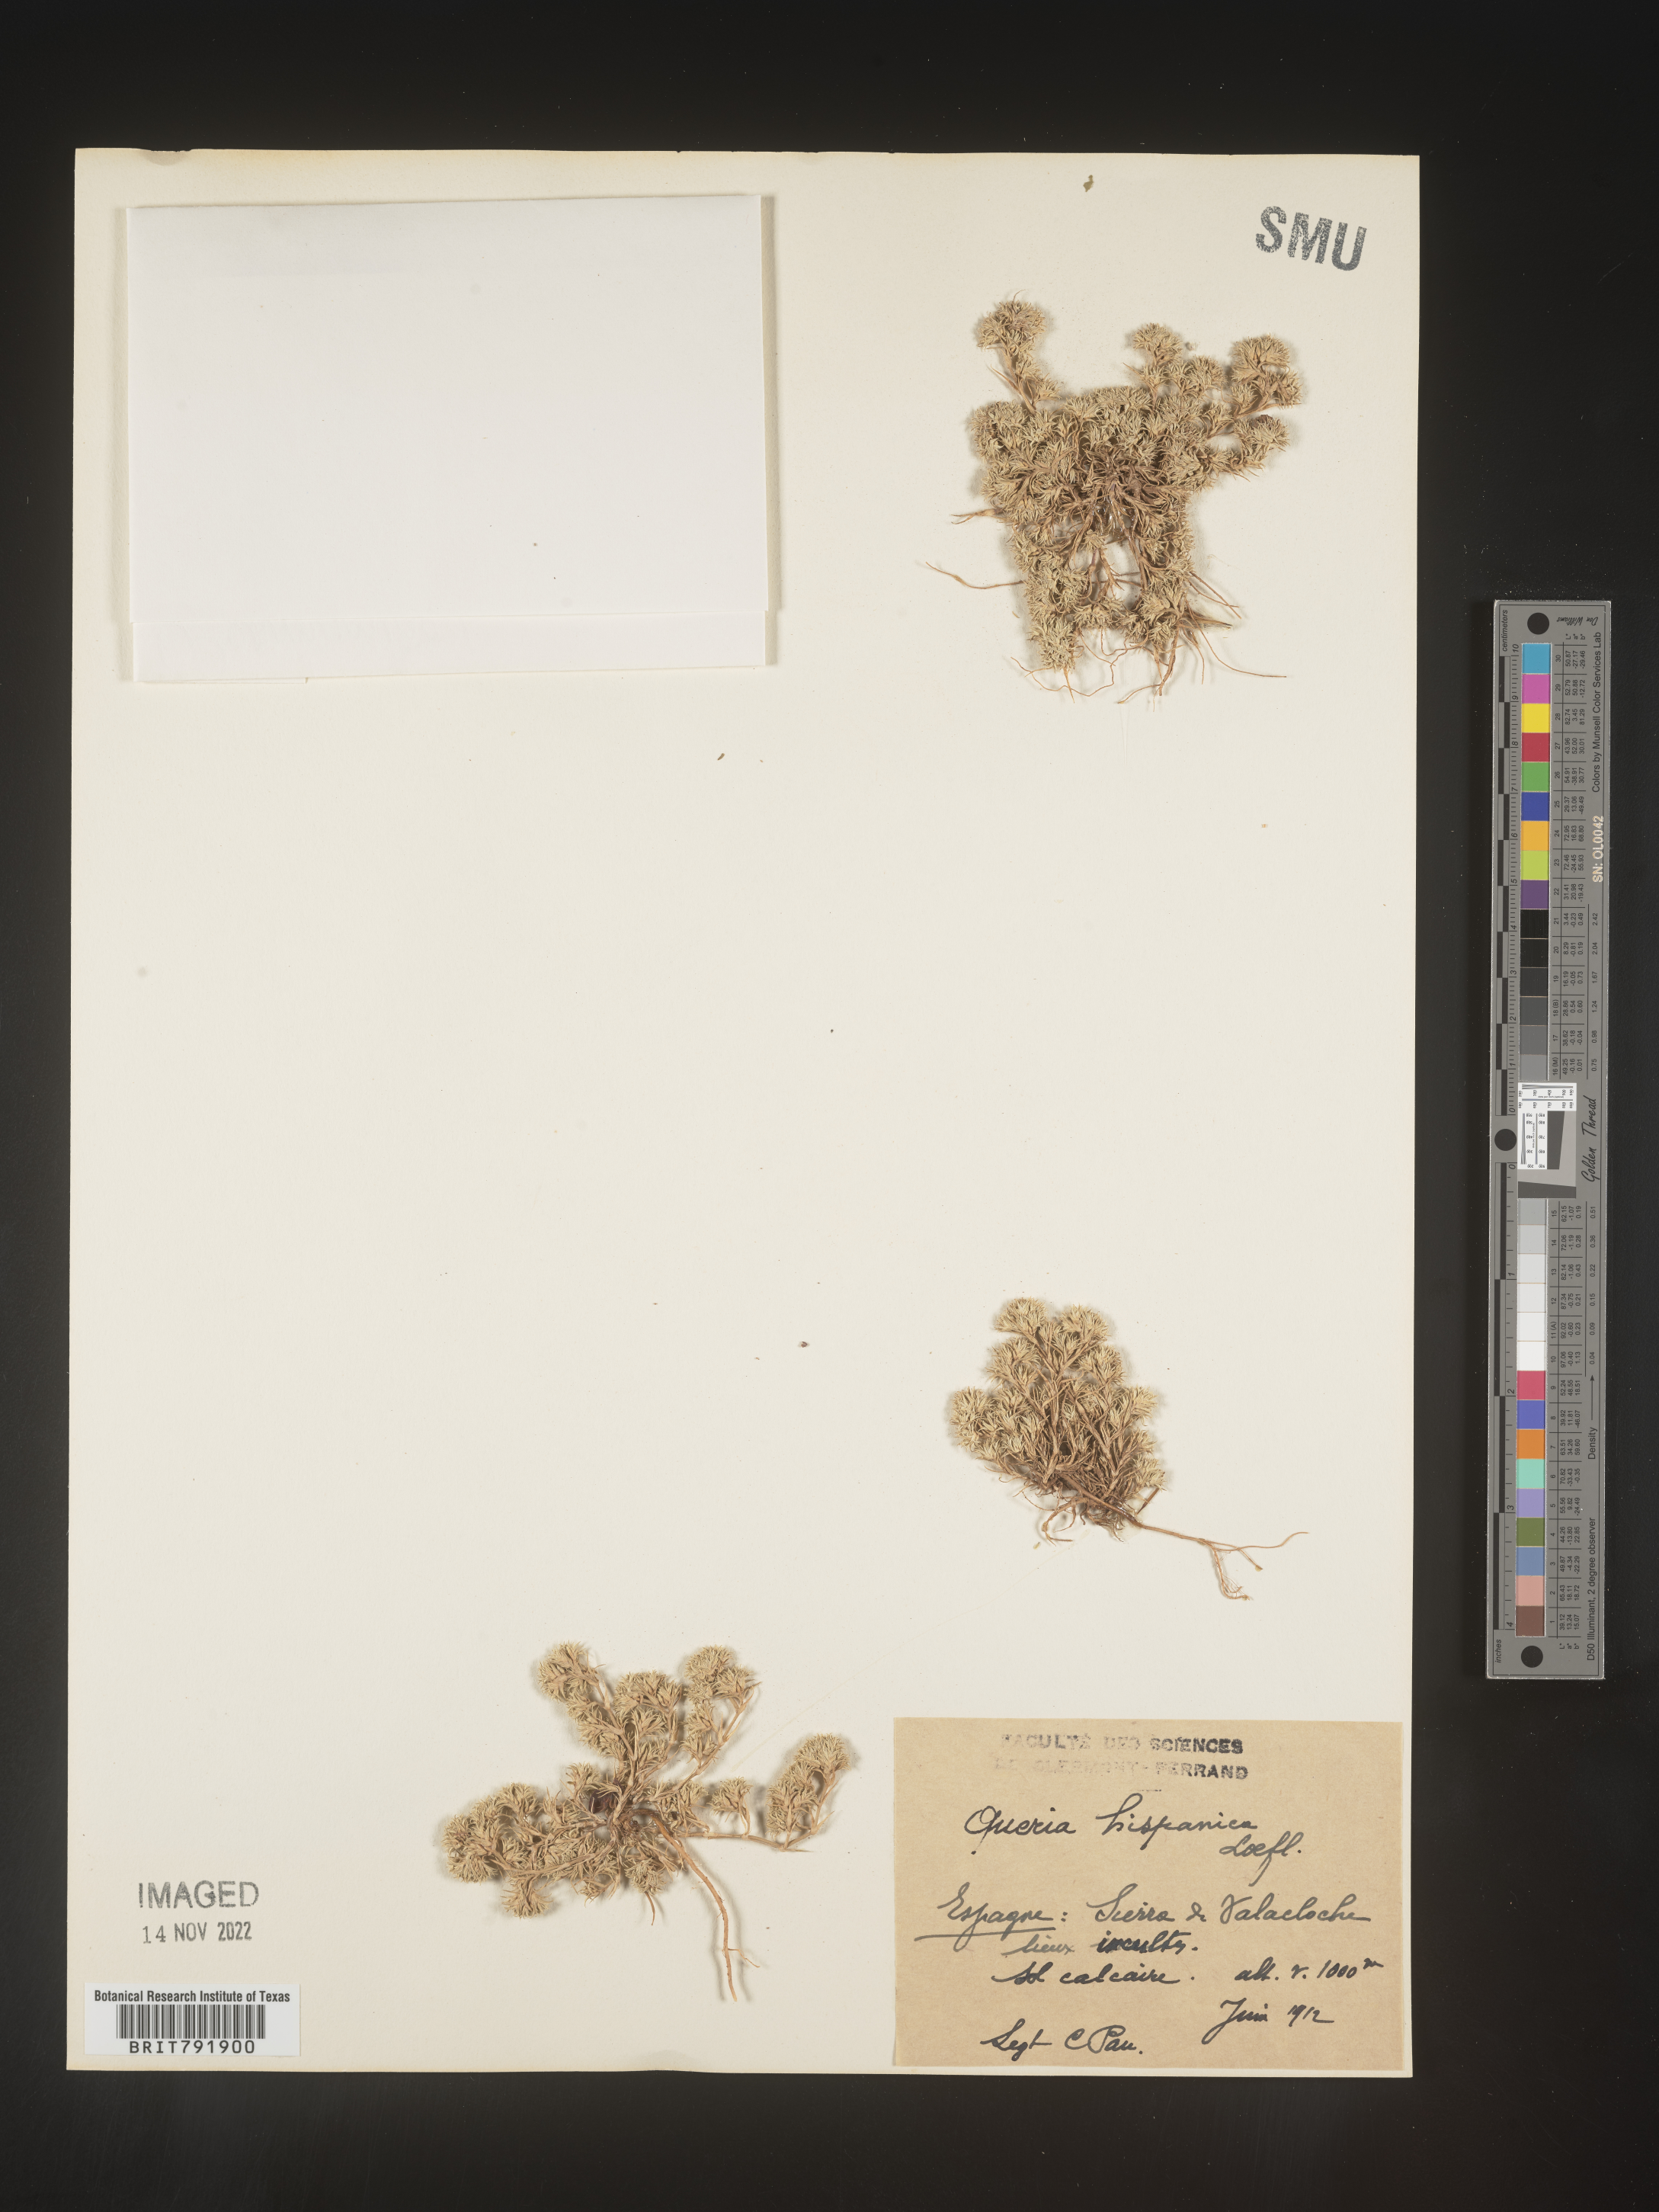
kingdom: Plantae
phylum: Tracheophyta
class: Magnoliopsida
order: Caryophyllales
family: Caryophyllaceae
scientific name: Caryophyllaceae
